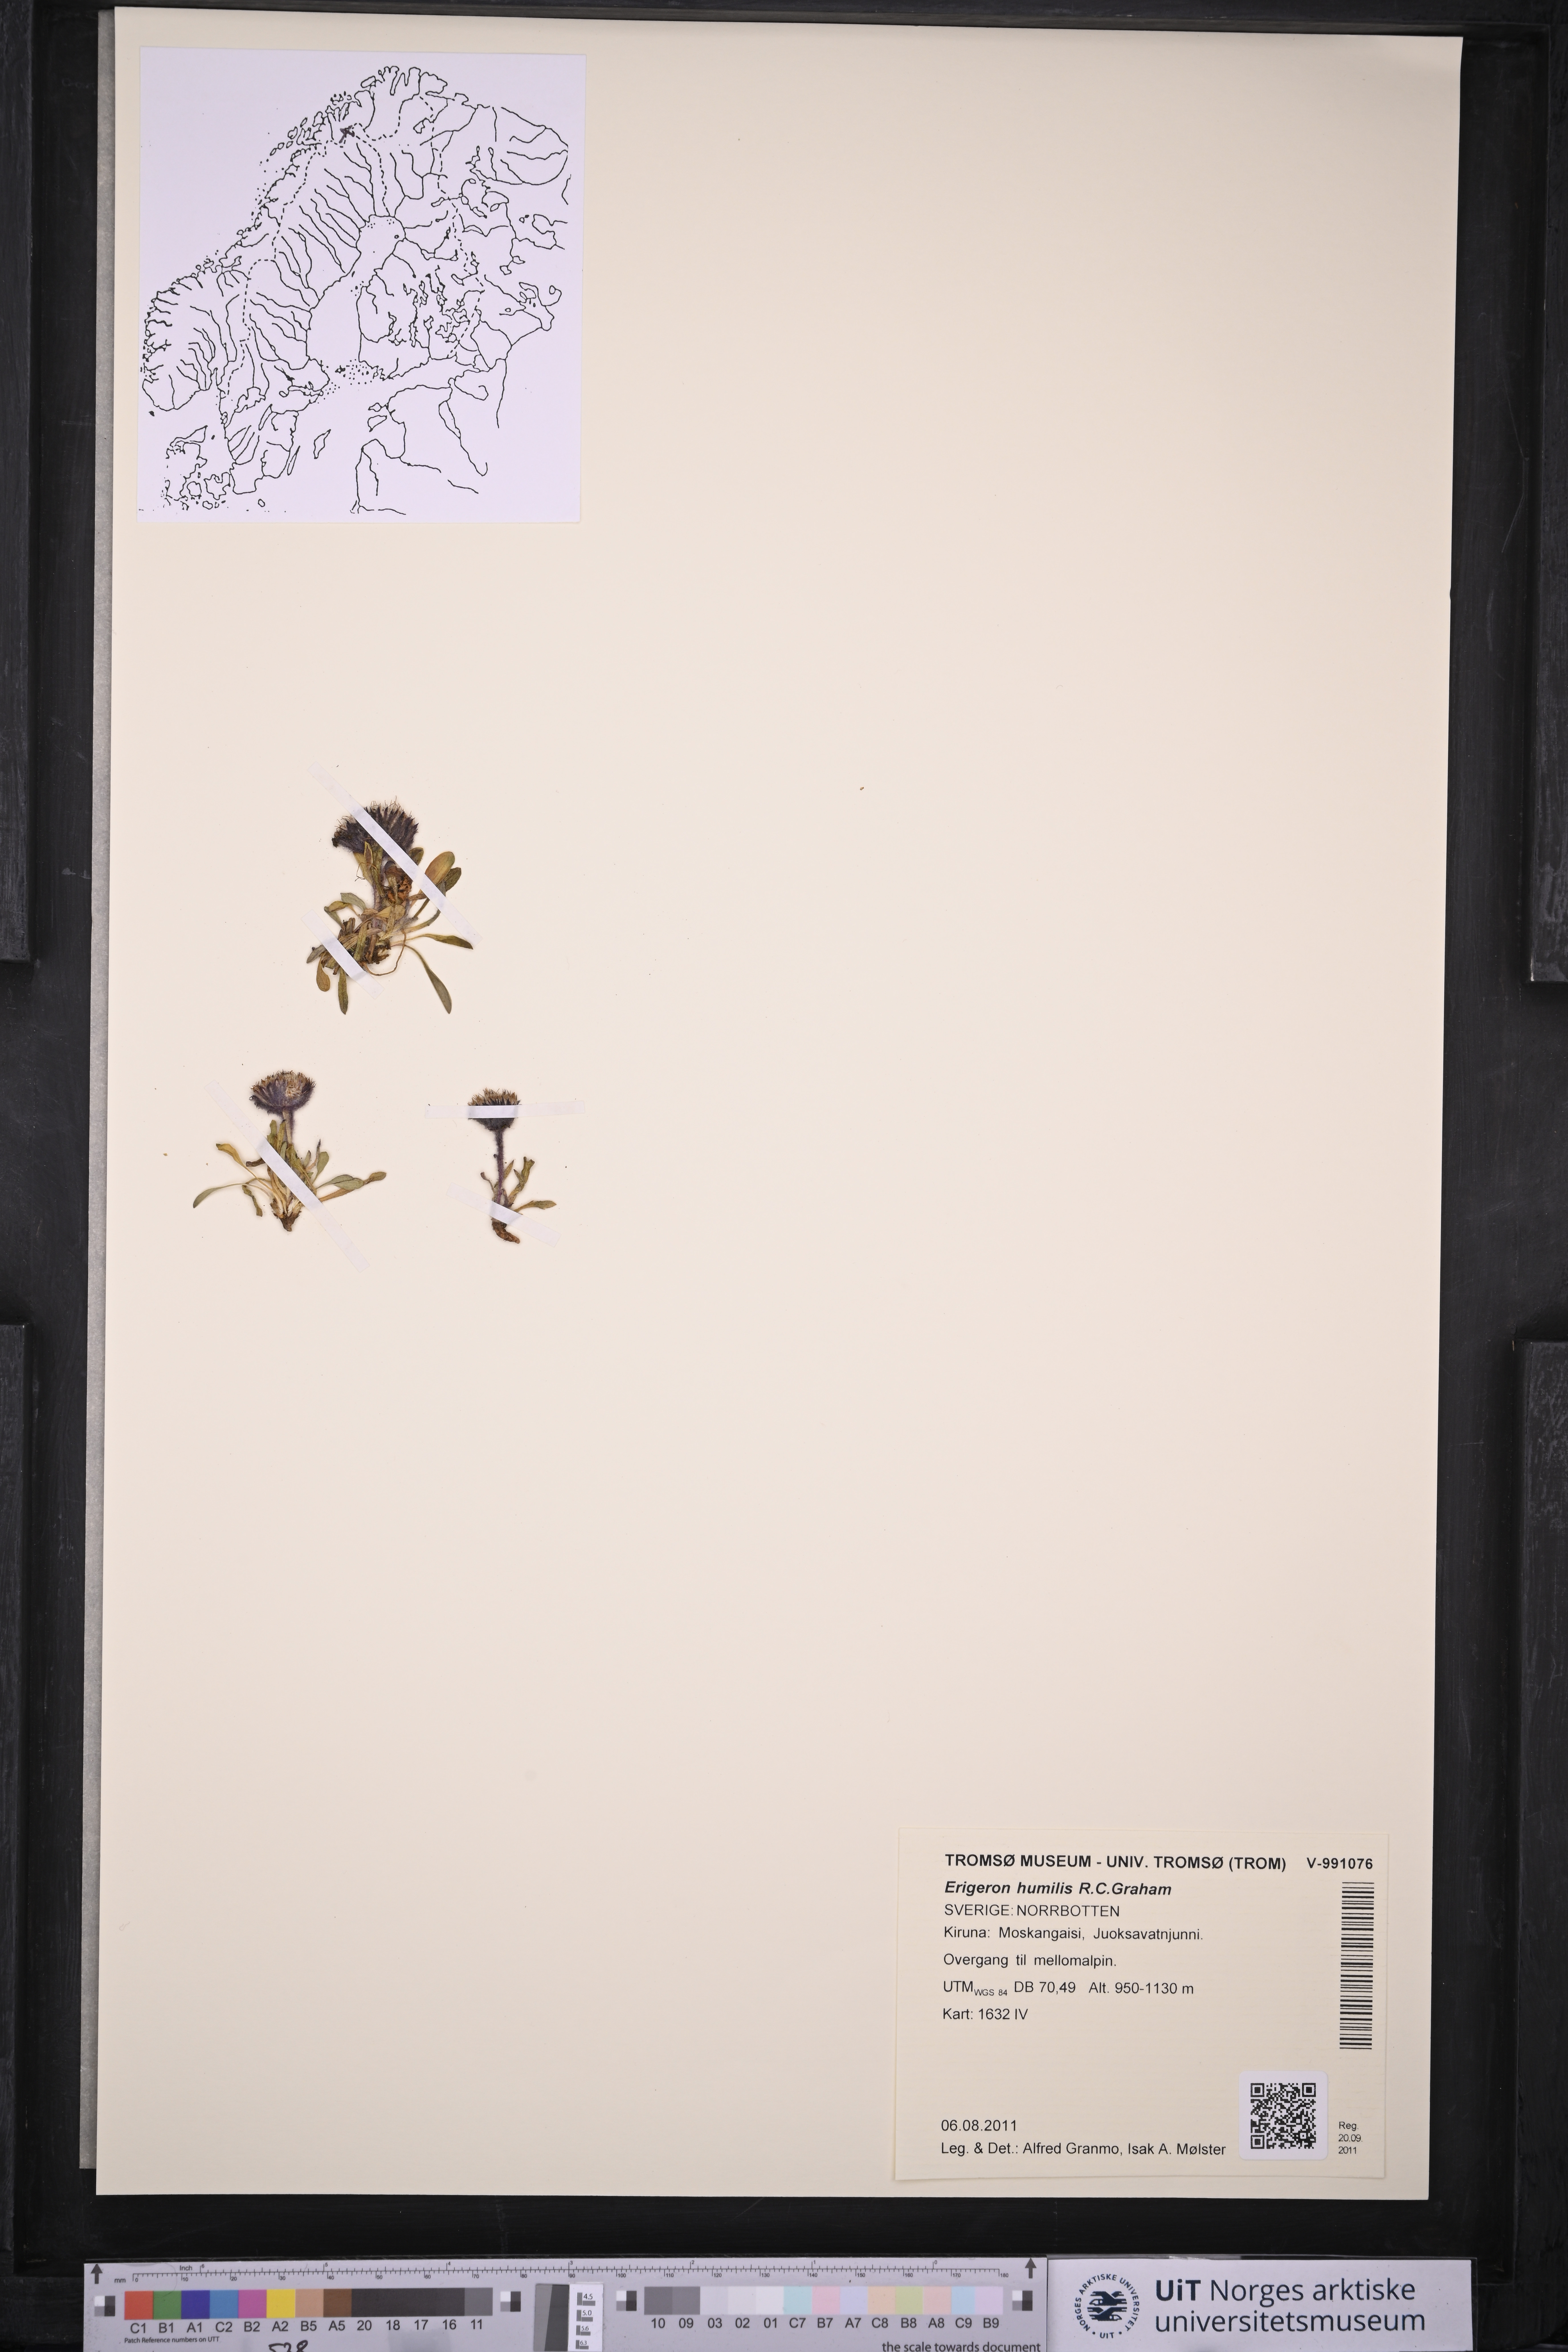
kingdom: Plantae
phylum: Tracheophyta
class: Magnoliopsida
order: Asterales
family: Asteraceae
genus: Erigeron
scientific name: Erigeron humilis
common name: Arctic-alpine fleabane
